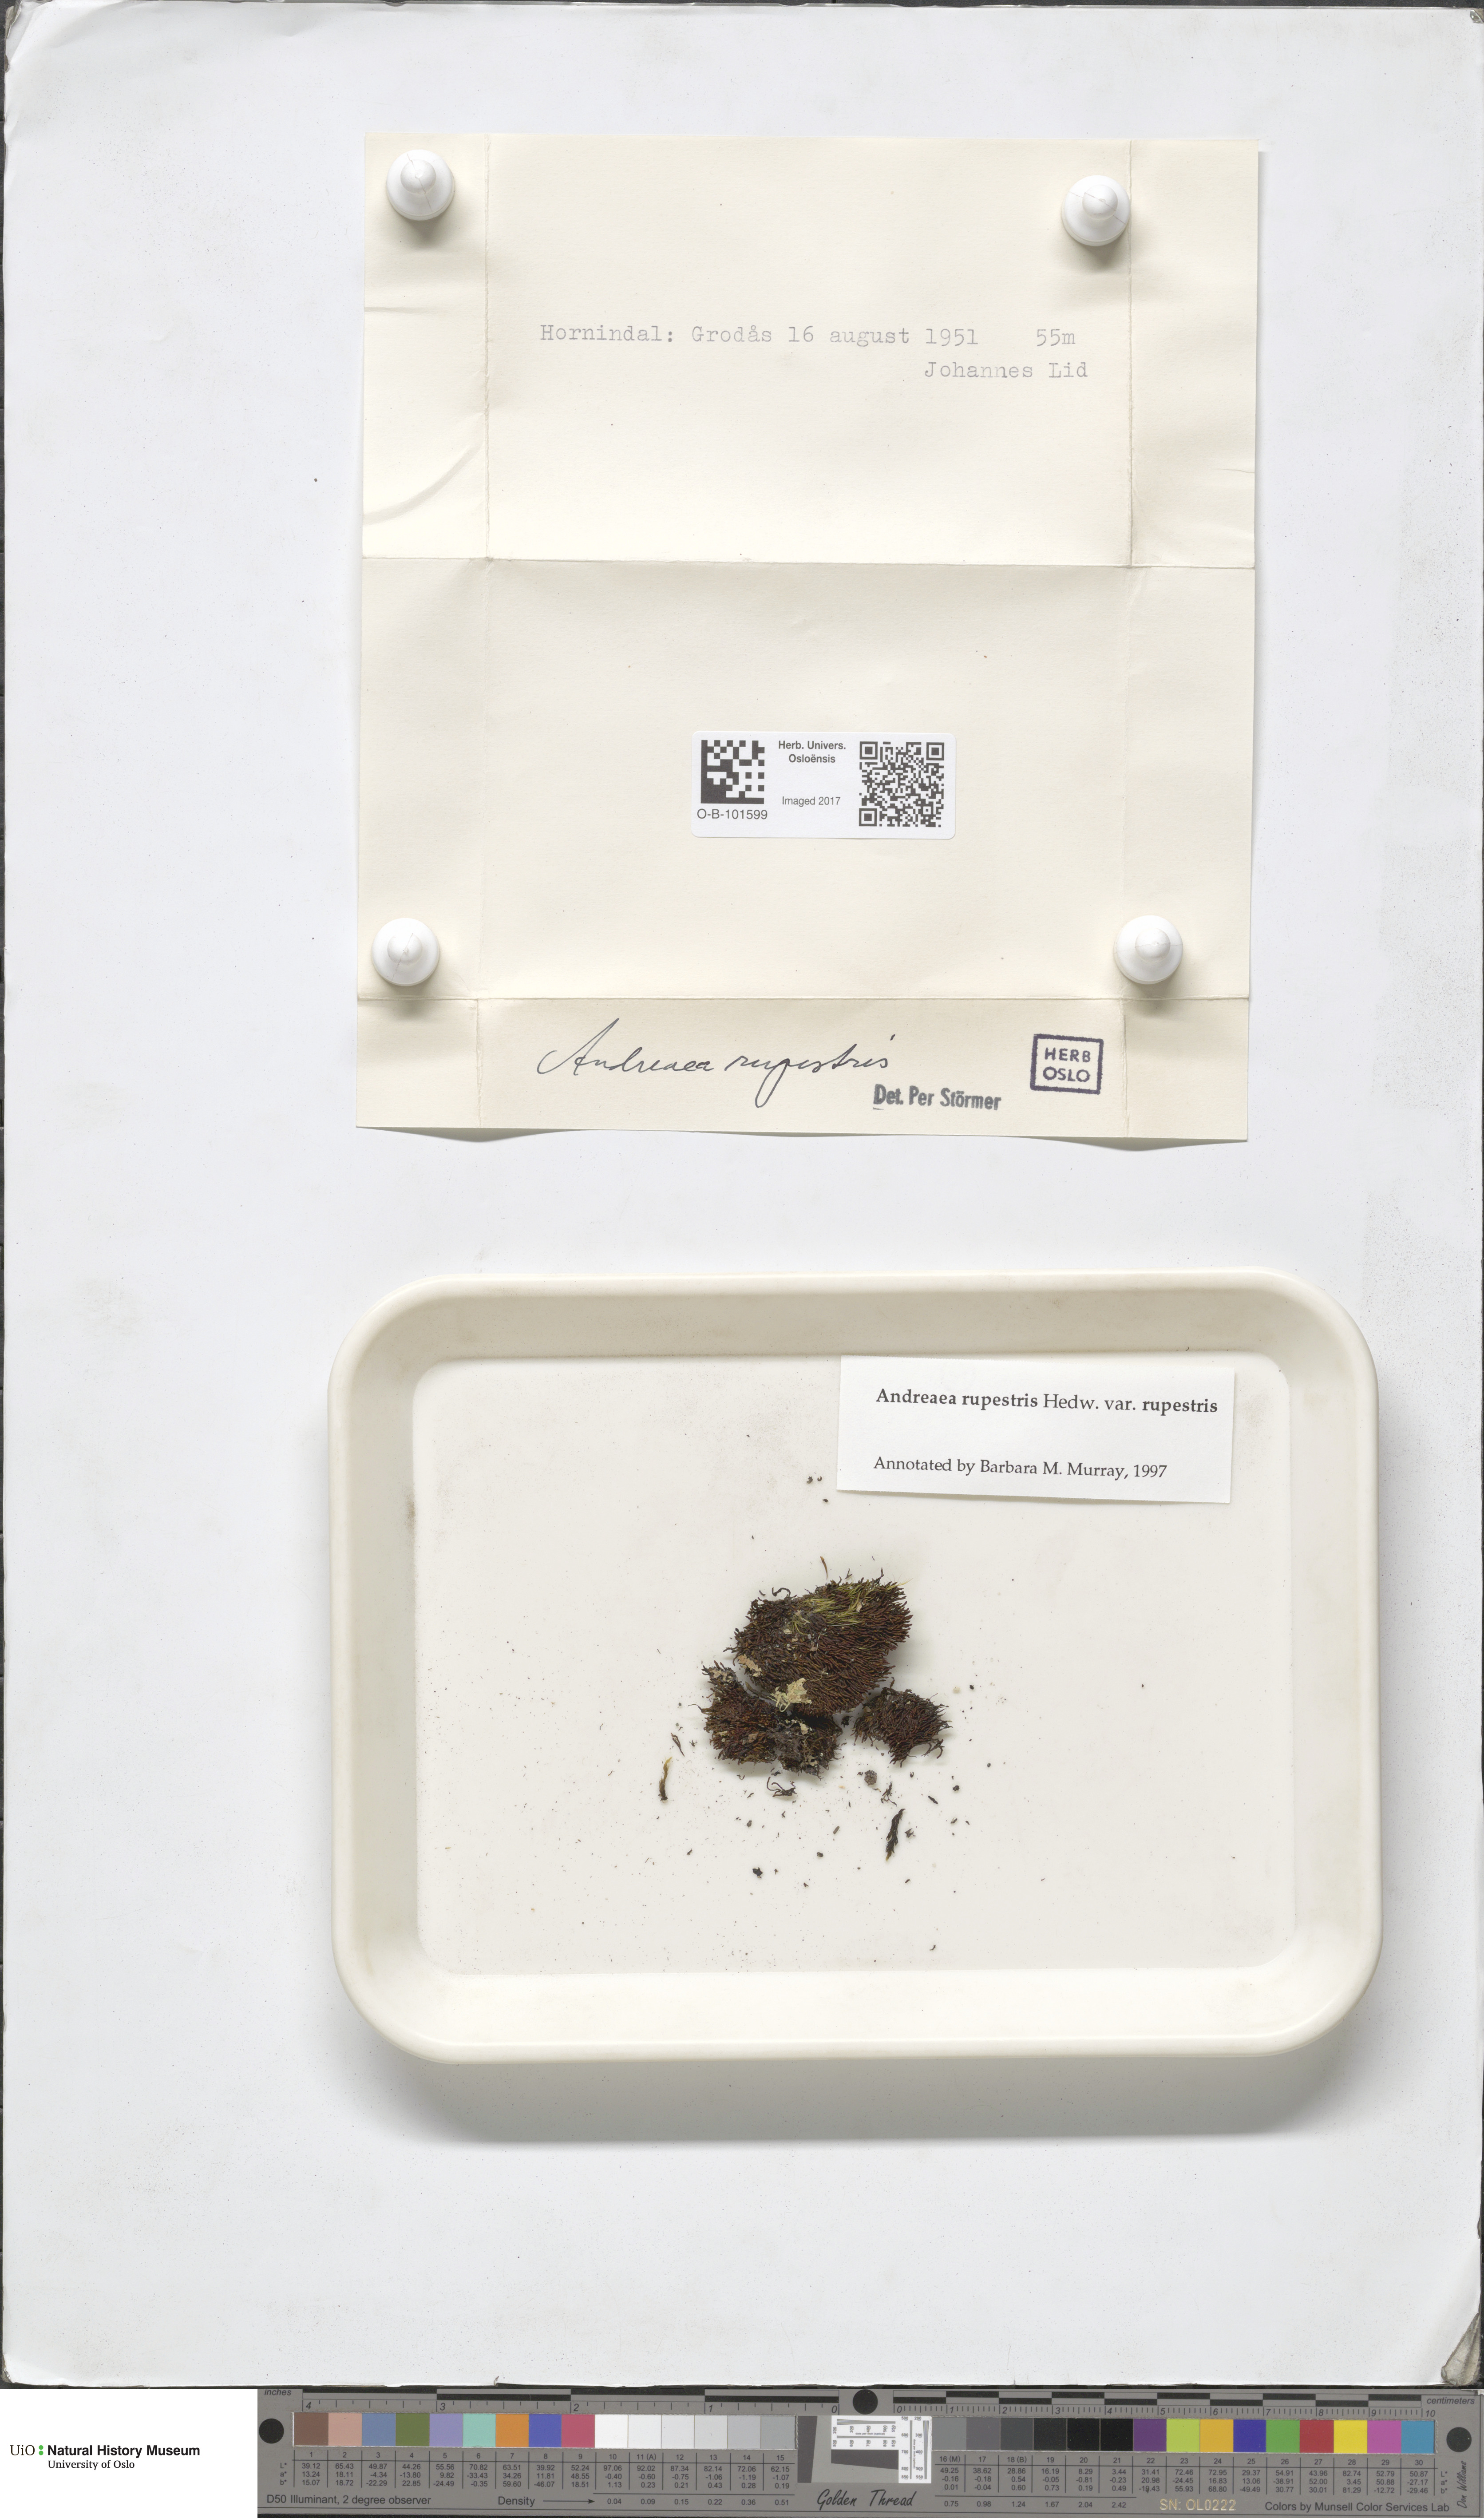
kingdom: Plantae
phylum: Bryophyta
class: Andreaeopsida
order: Andreaeales
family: Andreaeaceae
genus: Andreaea
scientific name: Andreaea rupestris
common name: Black rock moss
